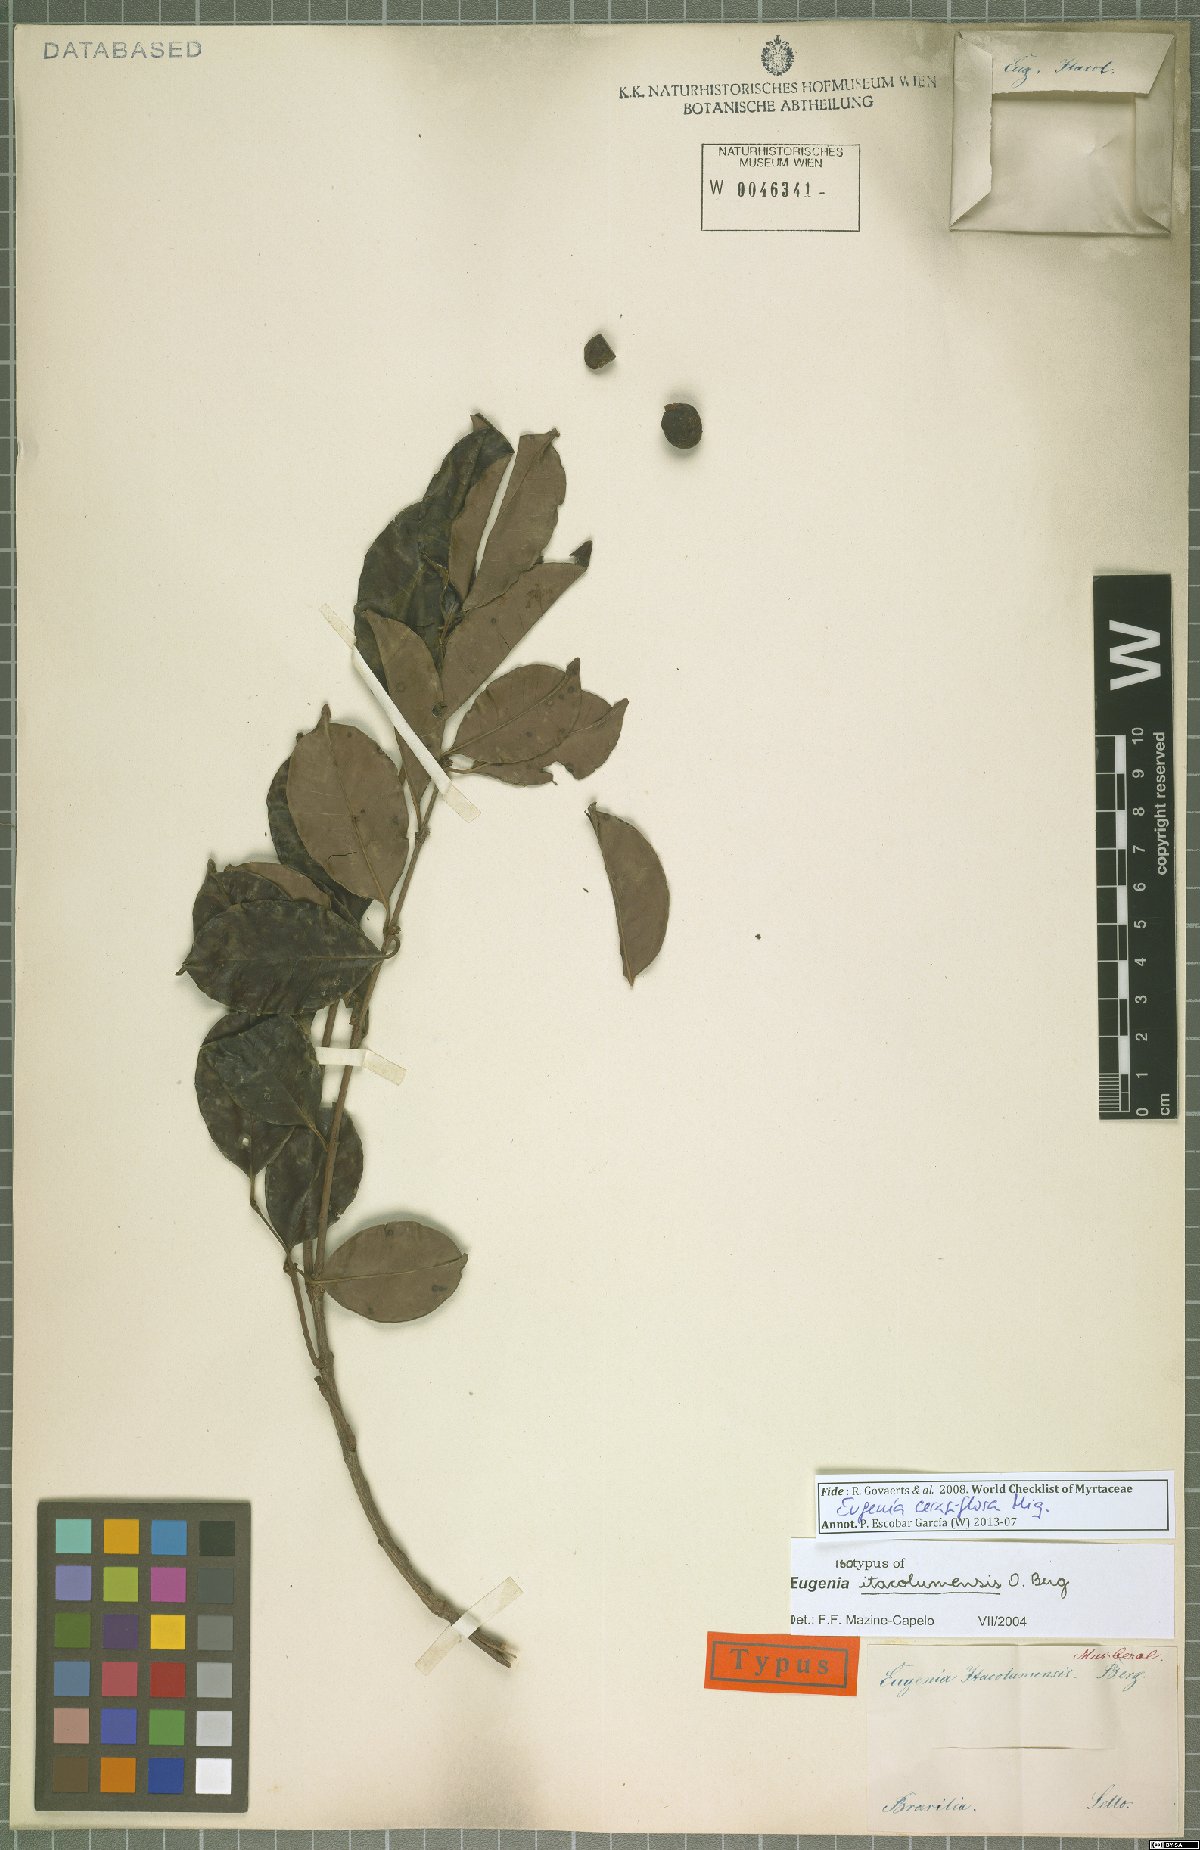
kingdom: Plantae
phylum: Tracheophyta
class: Magnoliopsida
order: Myrtales
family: Myrtaceae
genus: Eugenia
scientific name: Eugenia cerasiflora
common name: Cherry-of-the-rio-grande
